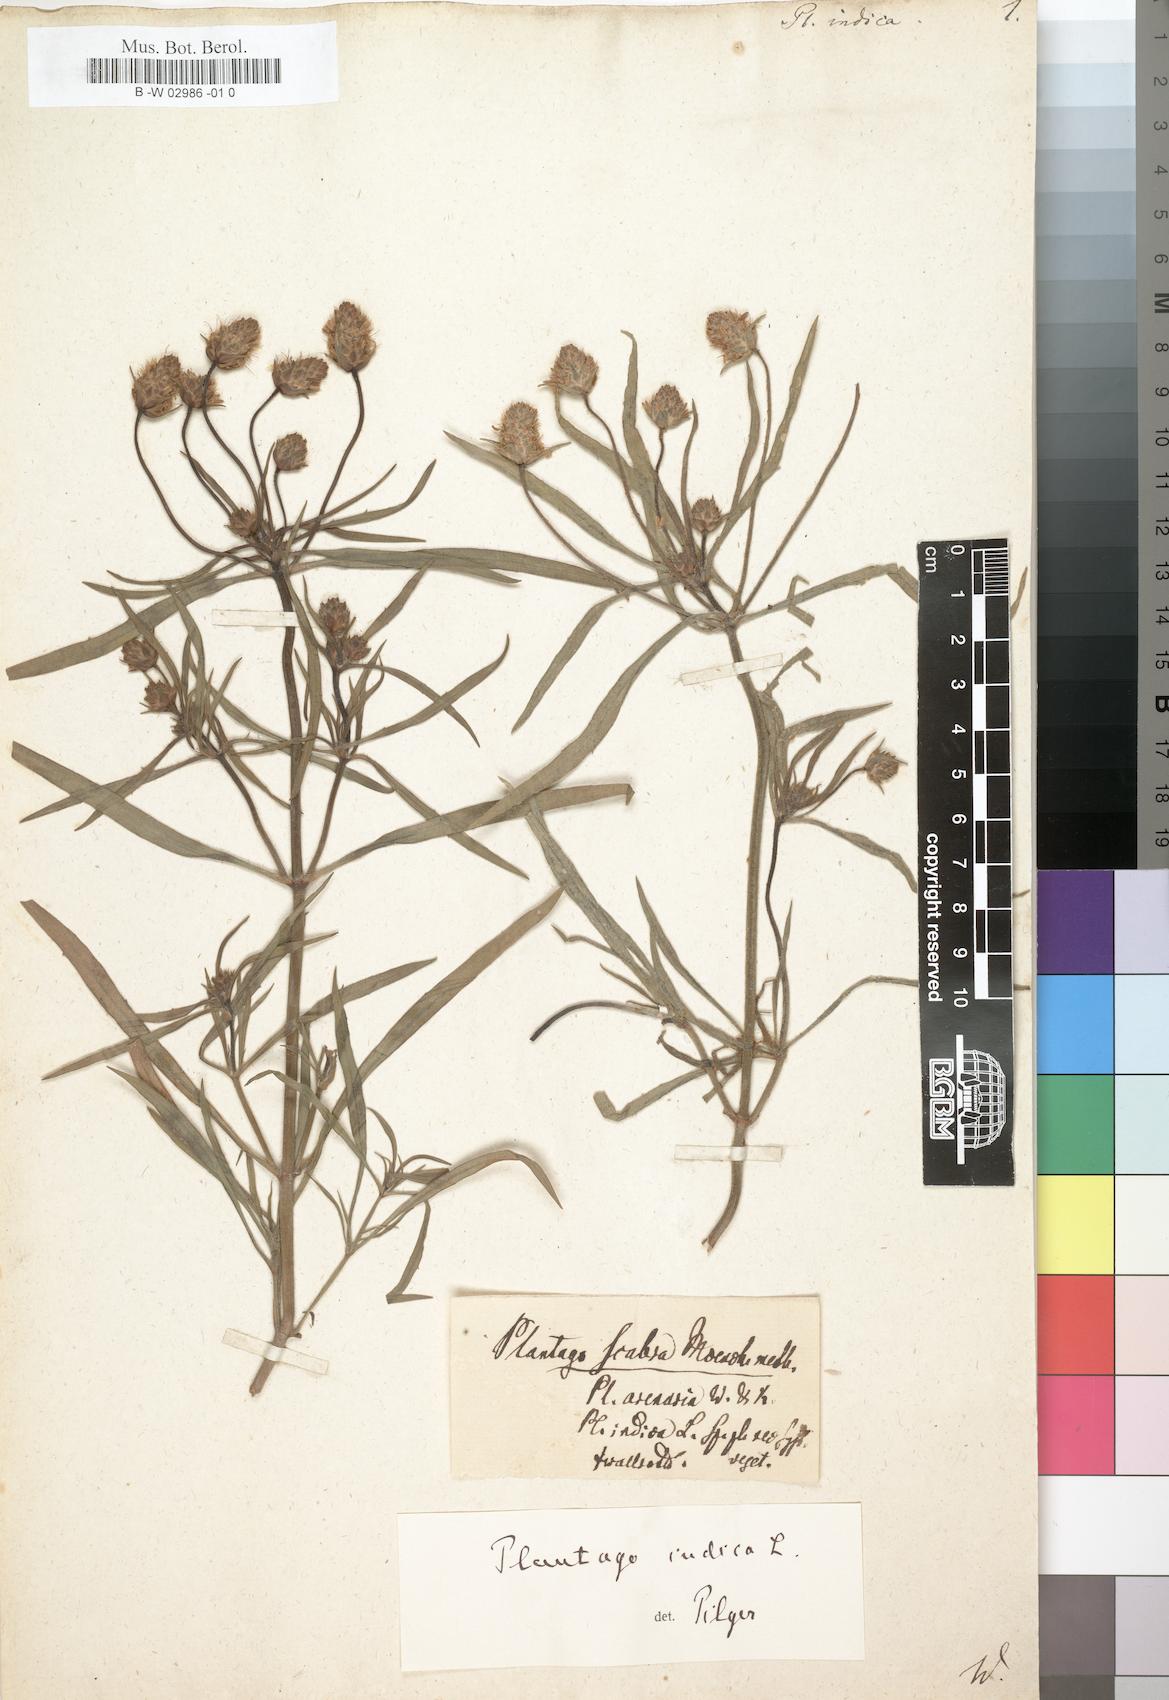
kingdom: Plantae
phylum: Tracheophyta
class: Magnoliopsida
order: Lamiales
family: Plantaginaceae
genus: Plantago
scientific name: Plantago arenaria
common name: Branched plantain
